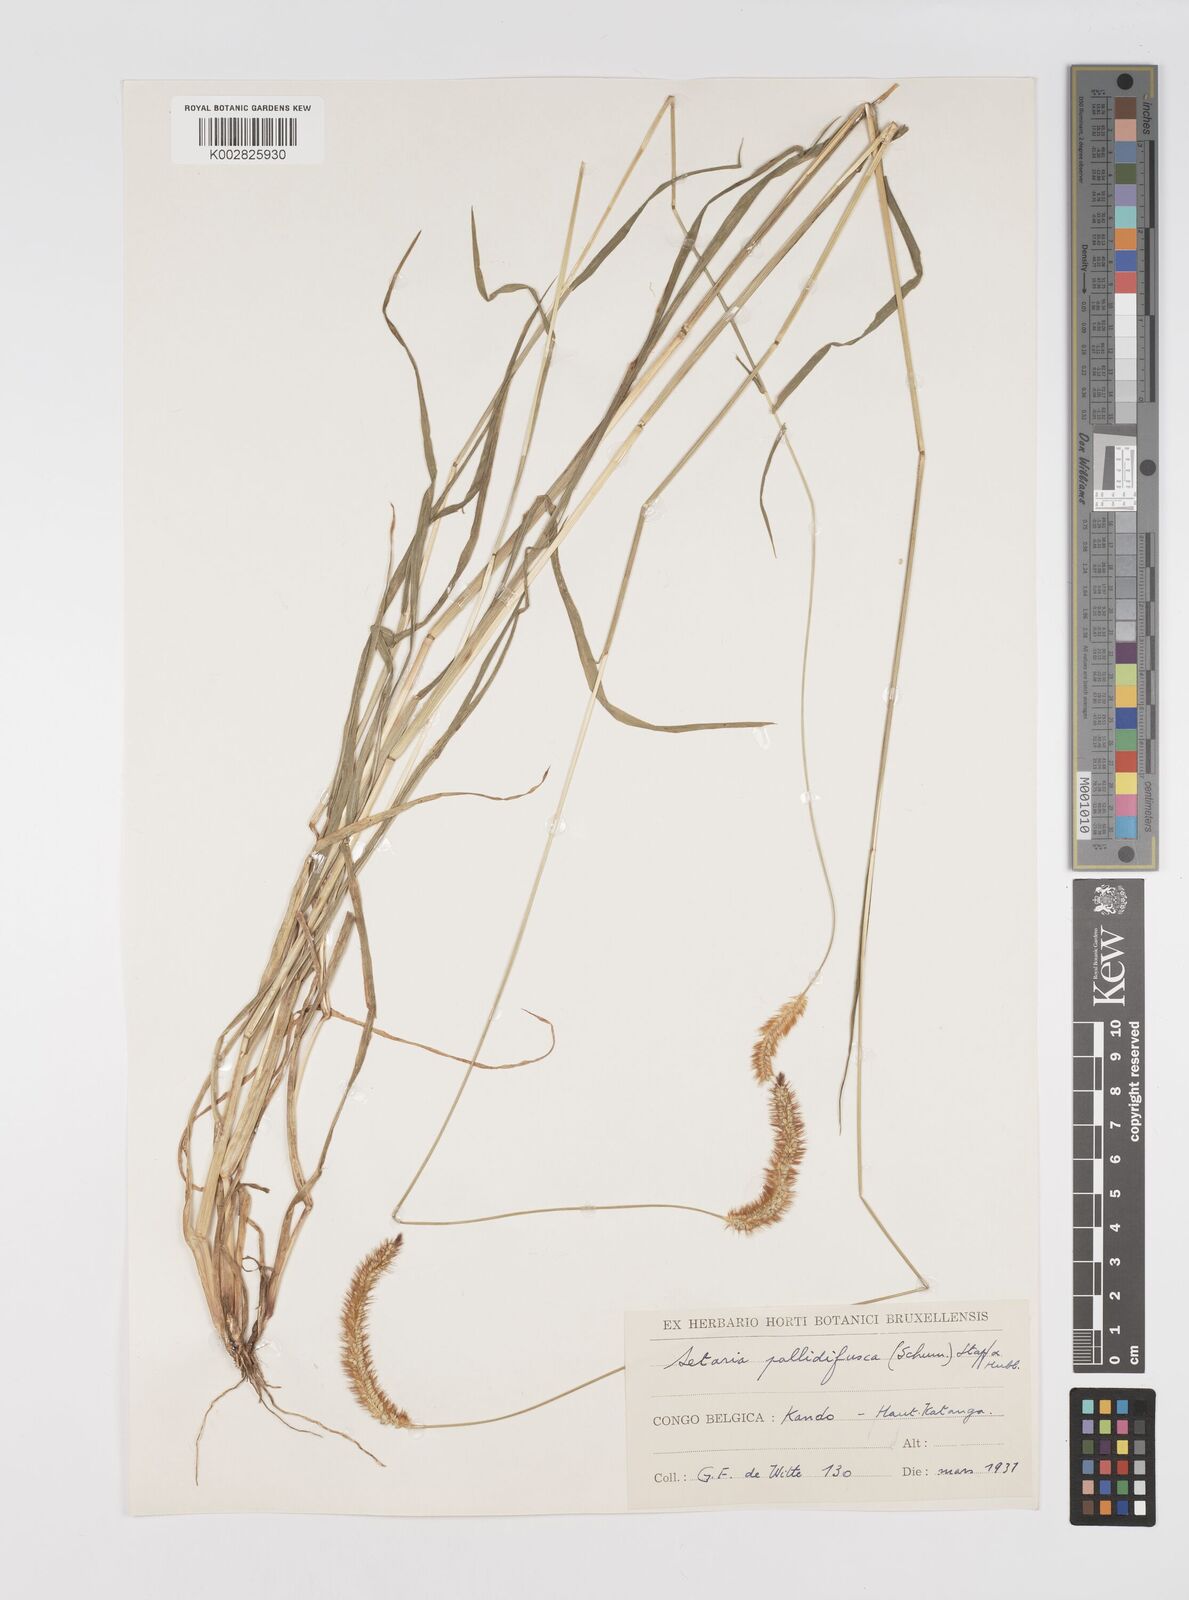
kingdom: Plantae
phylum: Tracheophyta
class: Liliopsida
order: Poales
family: Poaceae
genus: Setaria
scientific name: Setaria pumila
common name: Yellow bristle-grass
